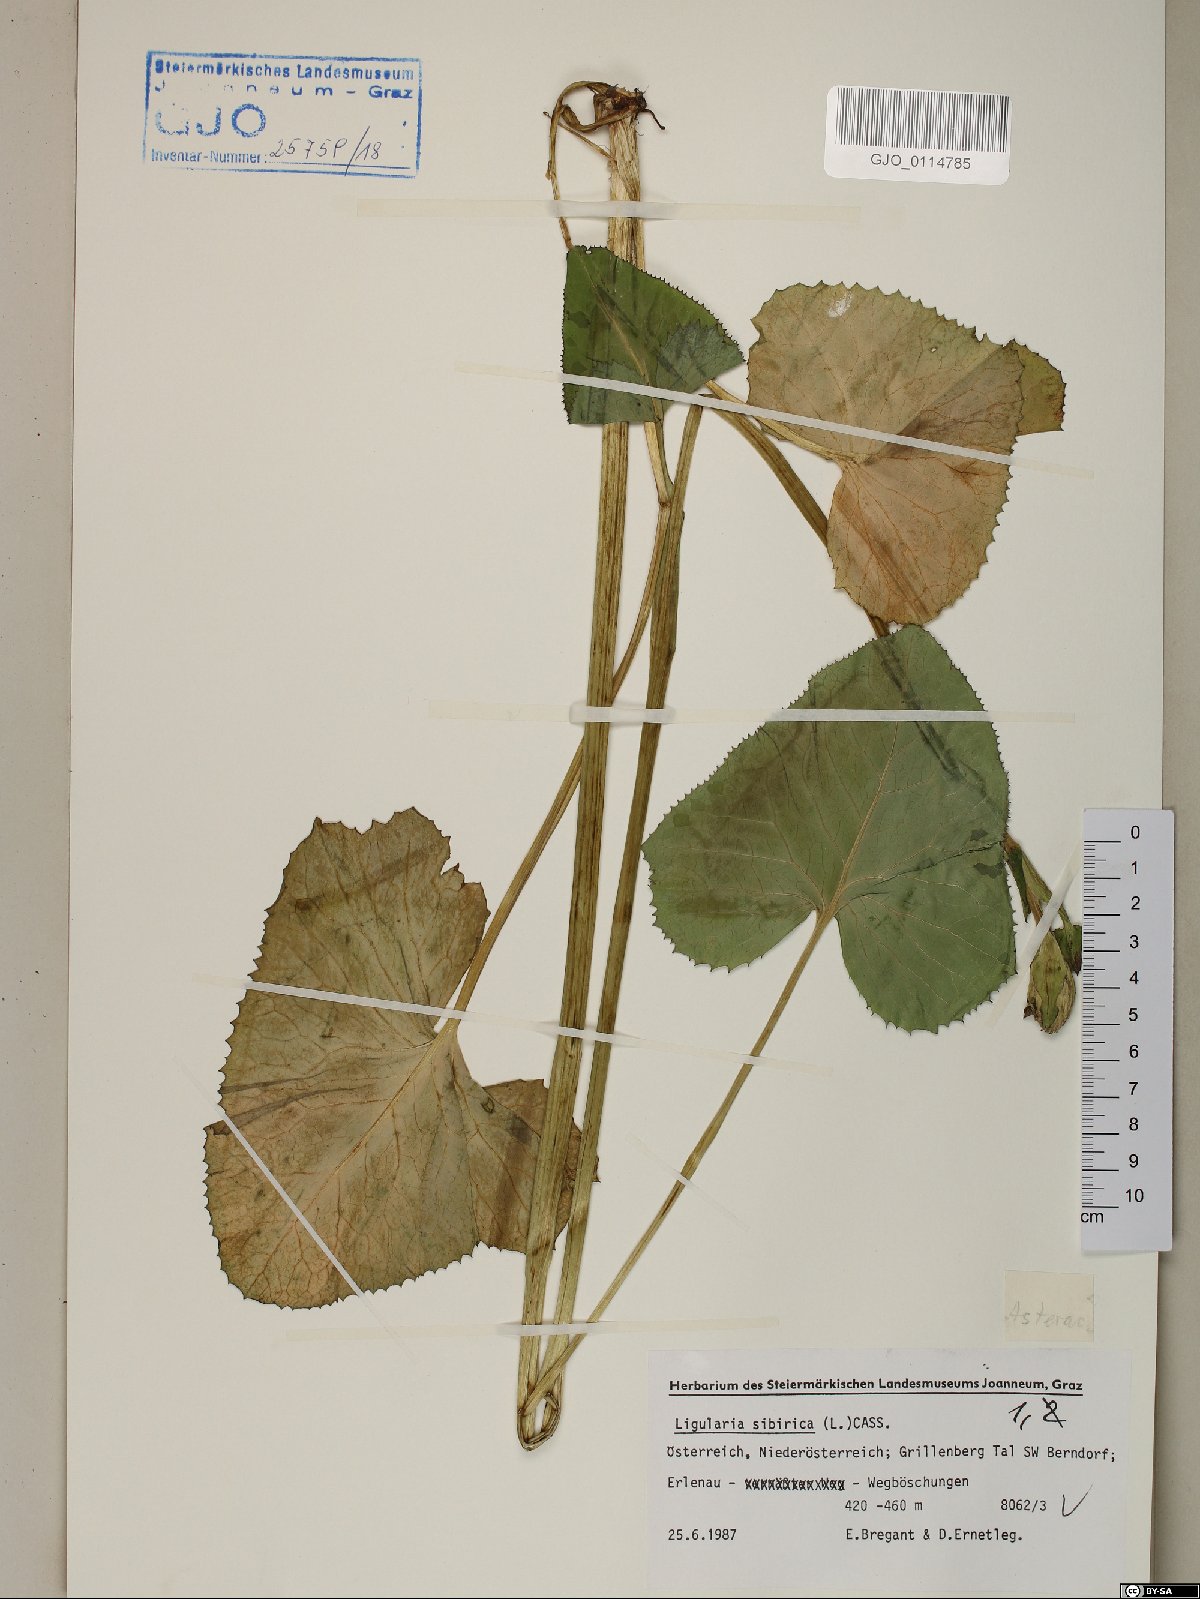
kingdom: Plantae
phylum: Tracheophyta
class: Magnoliopsida
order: Asterales
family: Asteraceae
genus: Ligularia
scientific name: Ligularia sibirica
